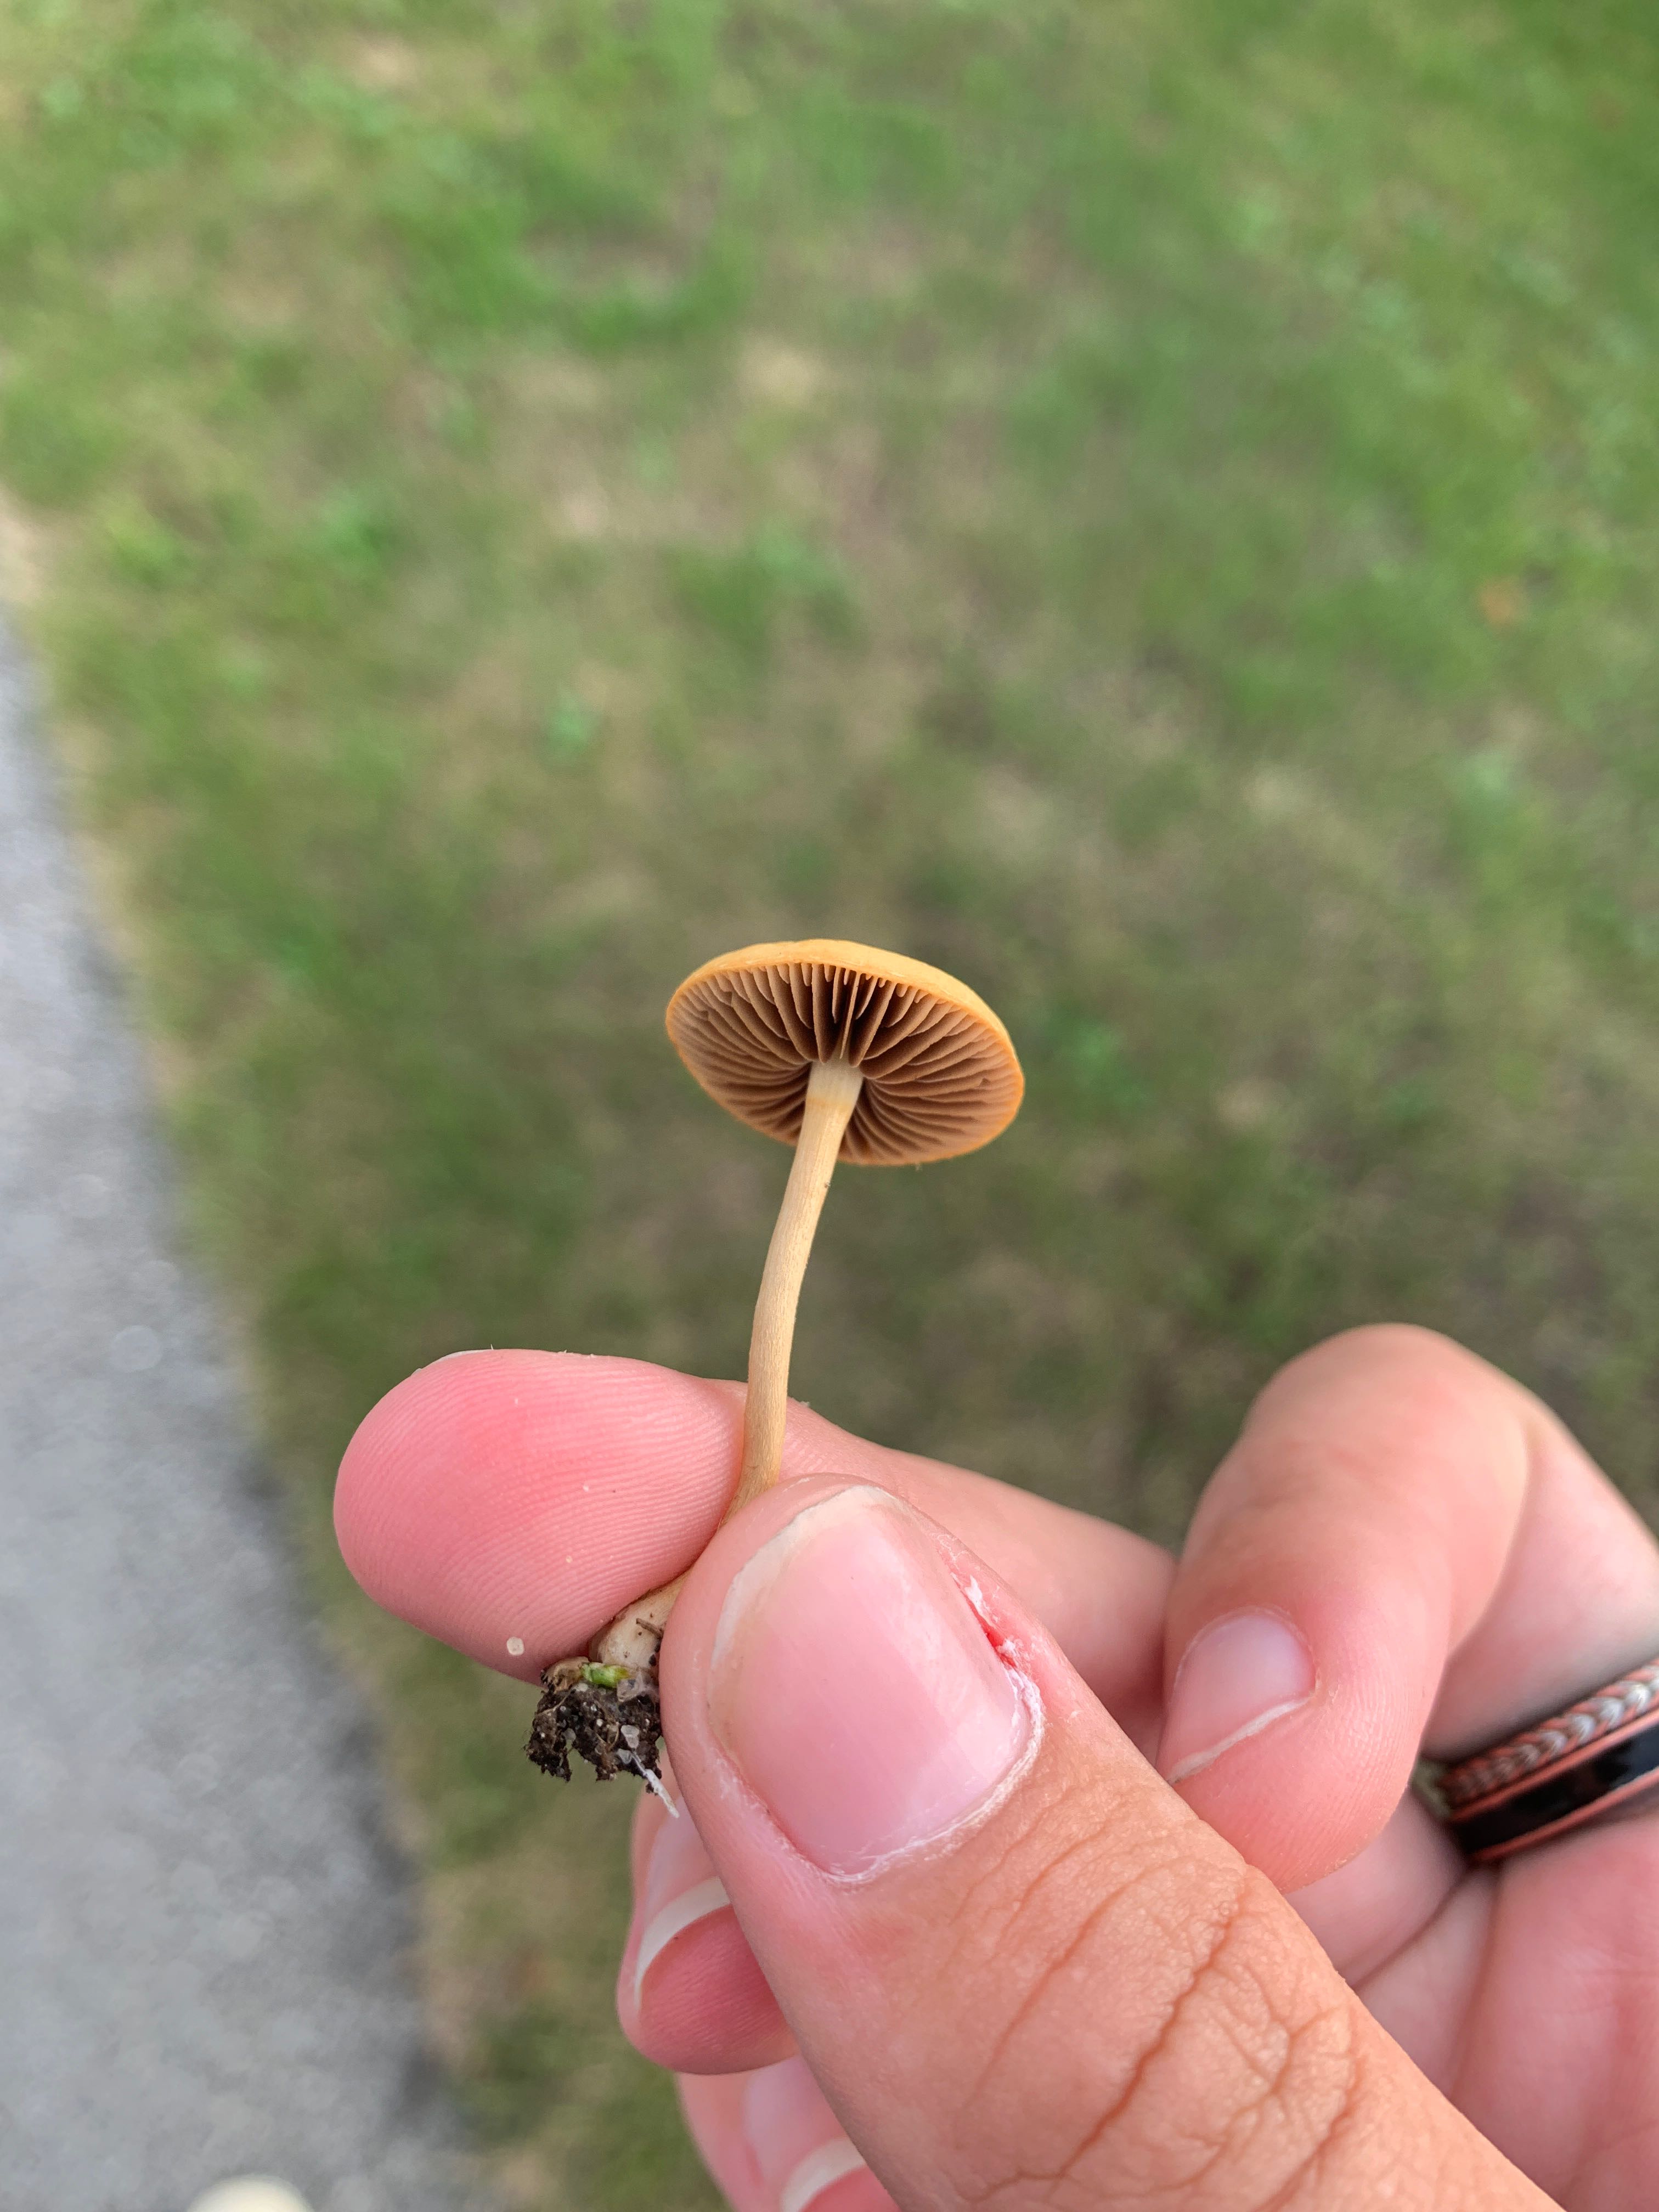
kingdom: Fungi
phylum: Basidiomycota
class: Agaricomycetes
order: Agaricales
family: Strophariaceae
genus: Agrocybe
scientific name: Agrocybe pediades
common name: almindelig agerhat
